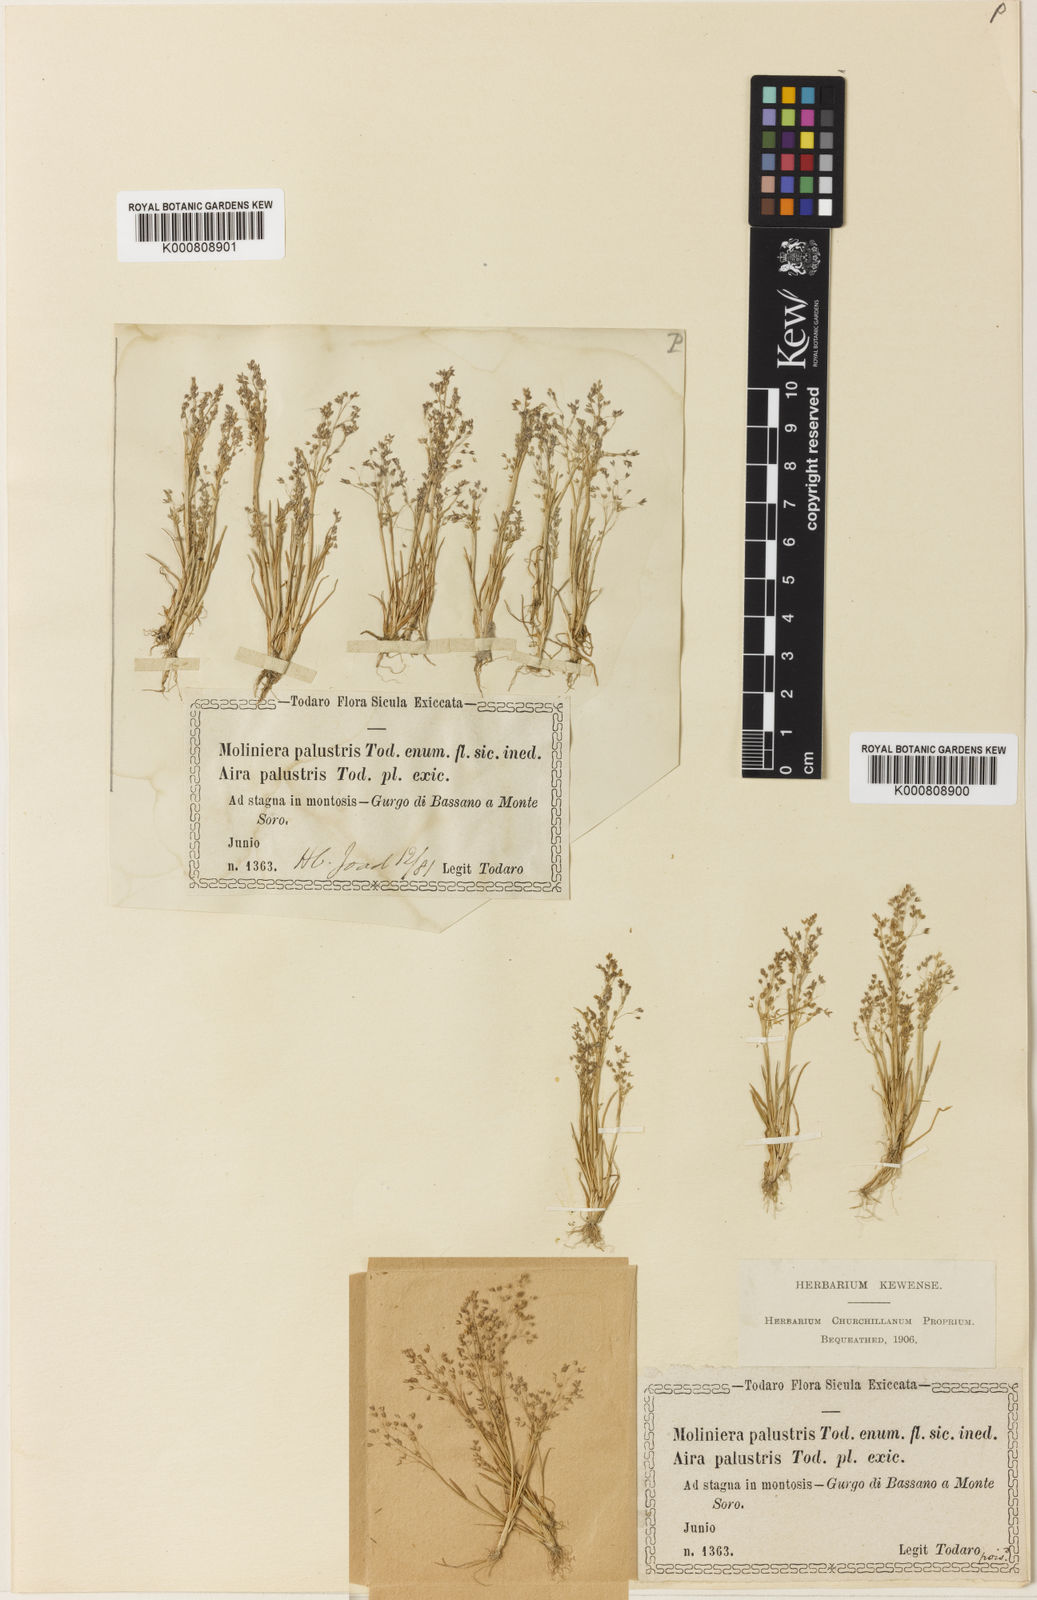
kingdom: Plantae
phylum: Tracheophyta
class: Liliopsida
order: Poales
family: Poaceae
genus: Molineriella
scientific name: Molineriella minuta
